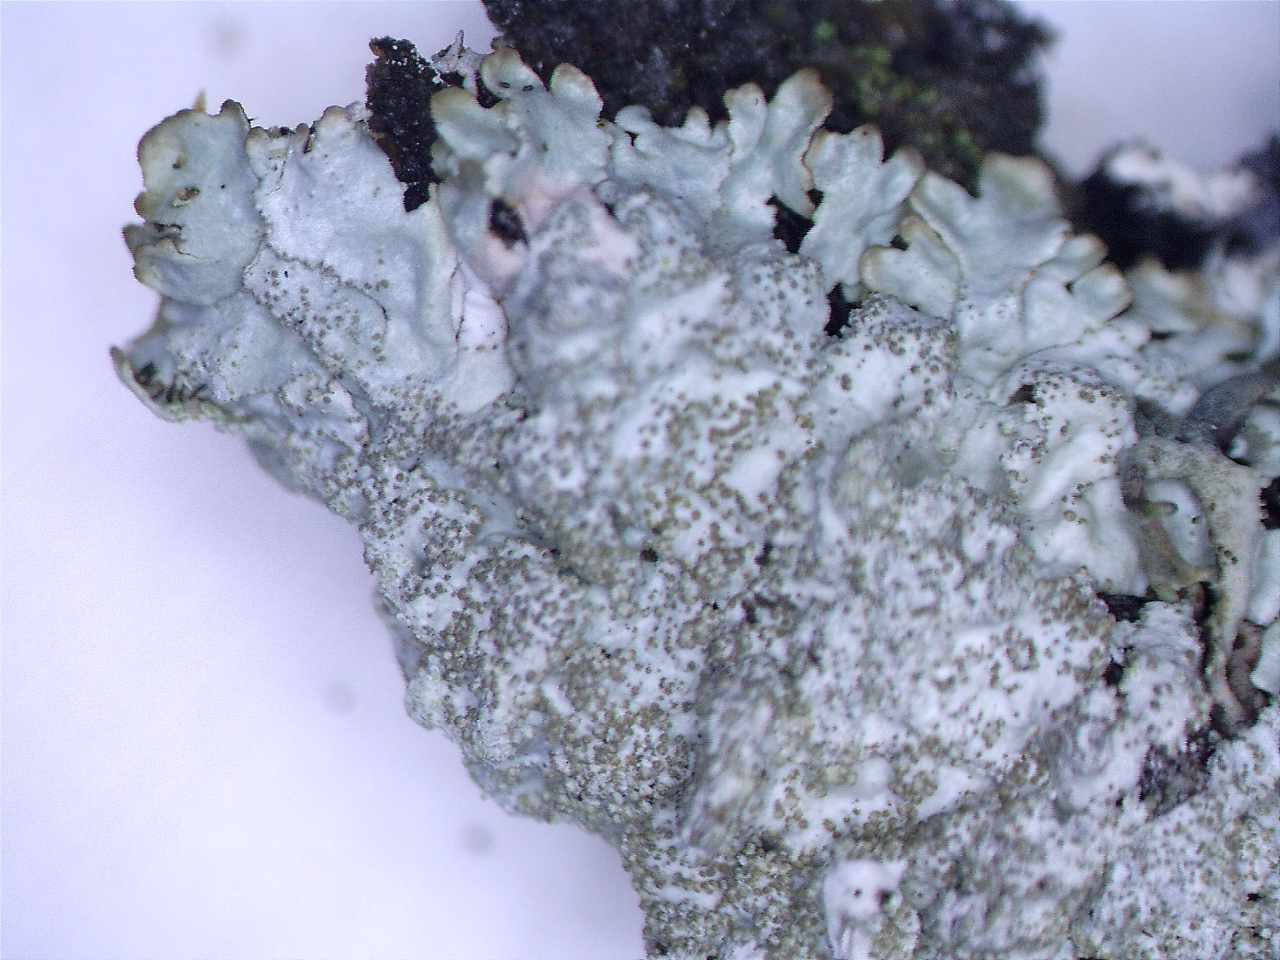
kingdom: Fungi
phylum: Ascomycota
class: Lecanoromycetes
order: Lecanorales
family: Parmeliaceae
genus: Imshaugia
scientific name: Imshaugia aleurites
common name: kliddet stolpelav
